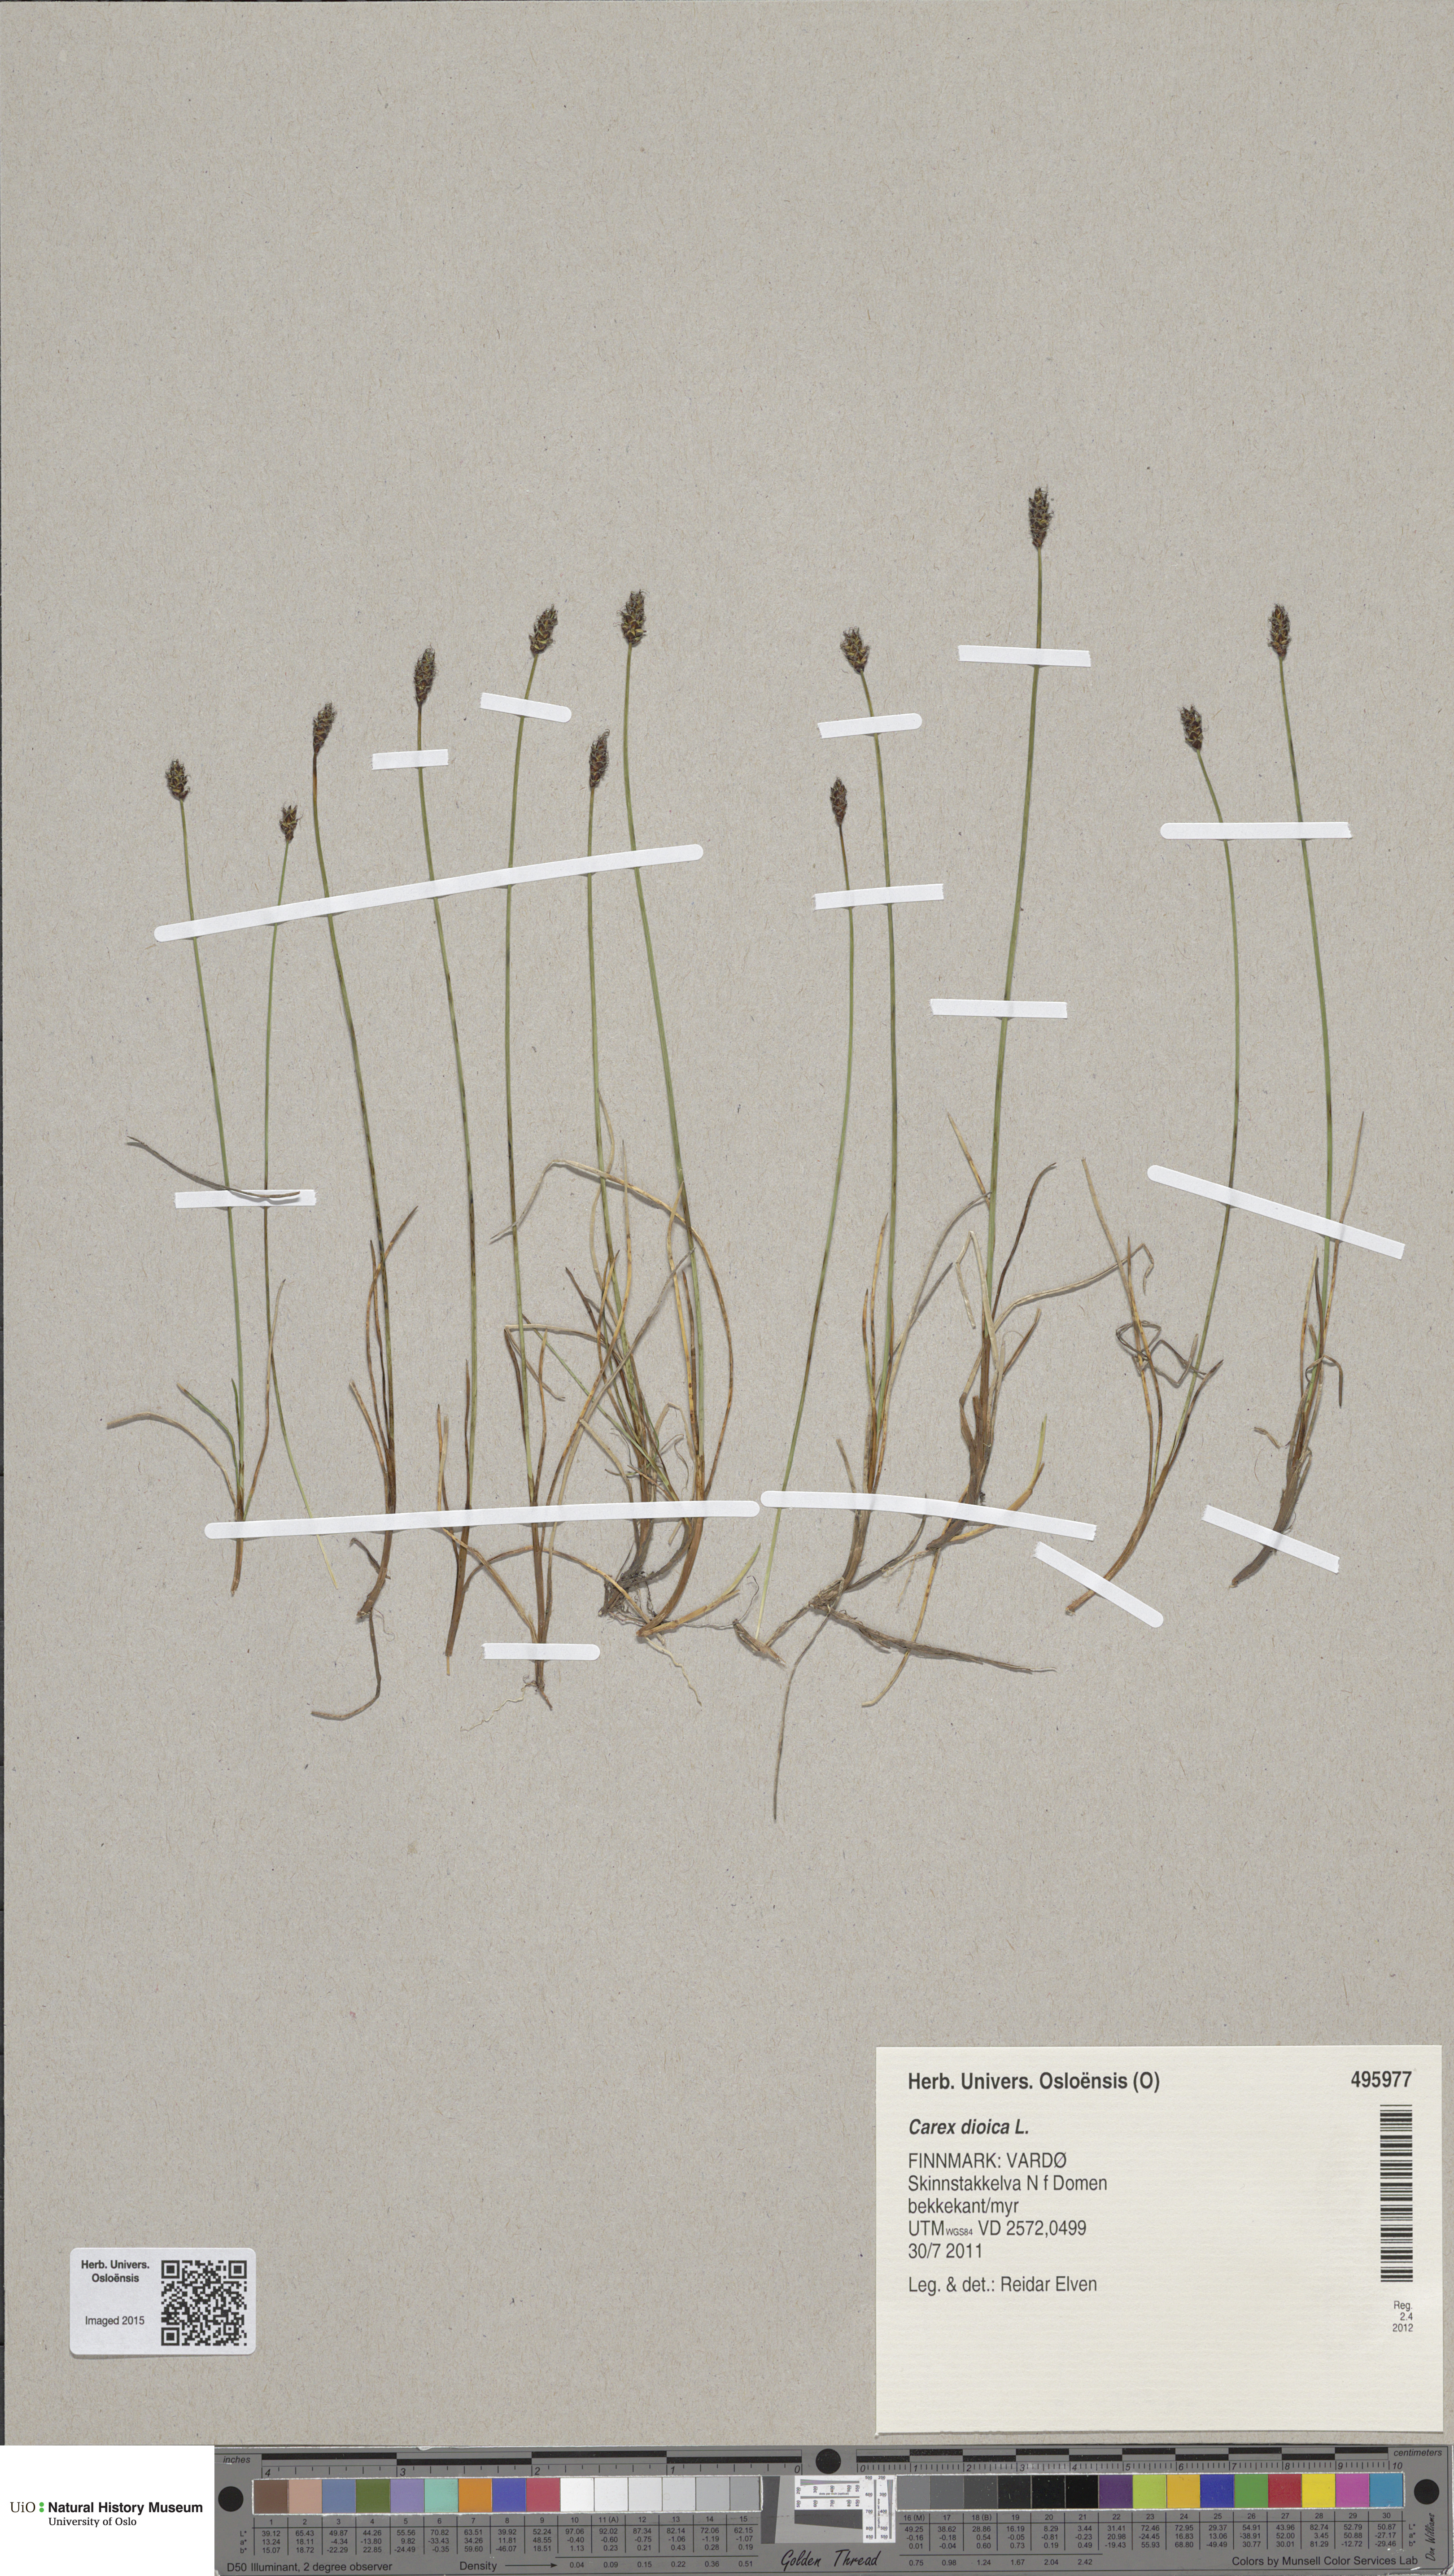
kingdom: Plantae
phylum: Tracheophyta
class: Liliopsida
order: Poales
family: Cyperaceae
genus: Carex
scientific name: Carex dioica
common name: Dioecious sedge
